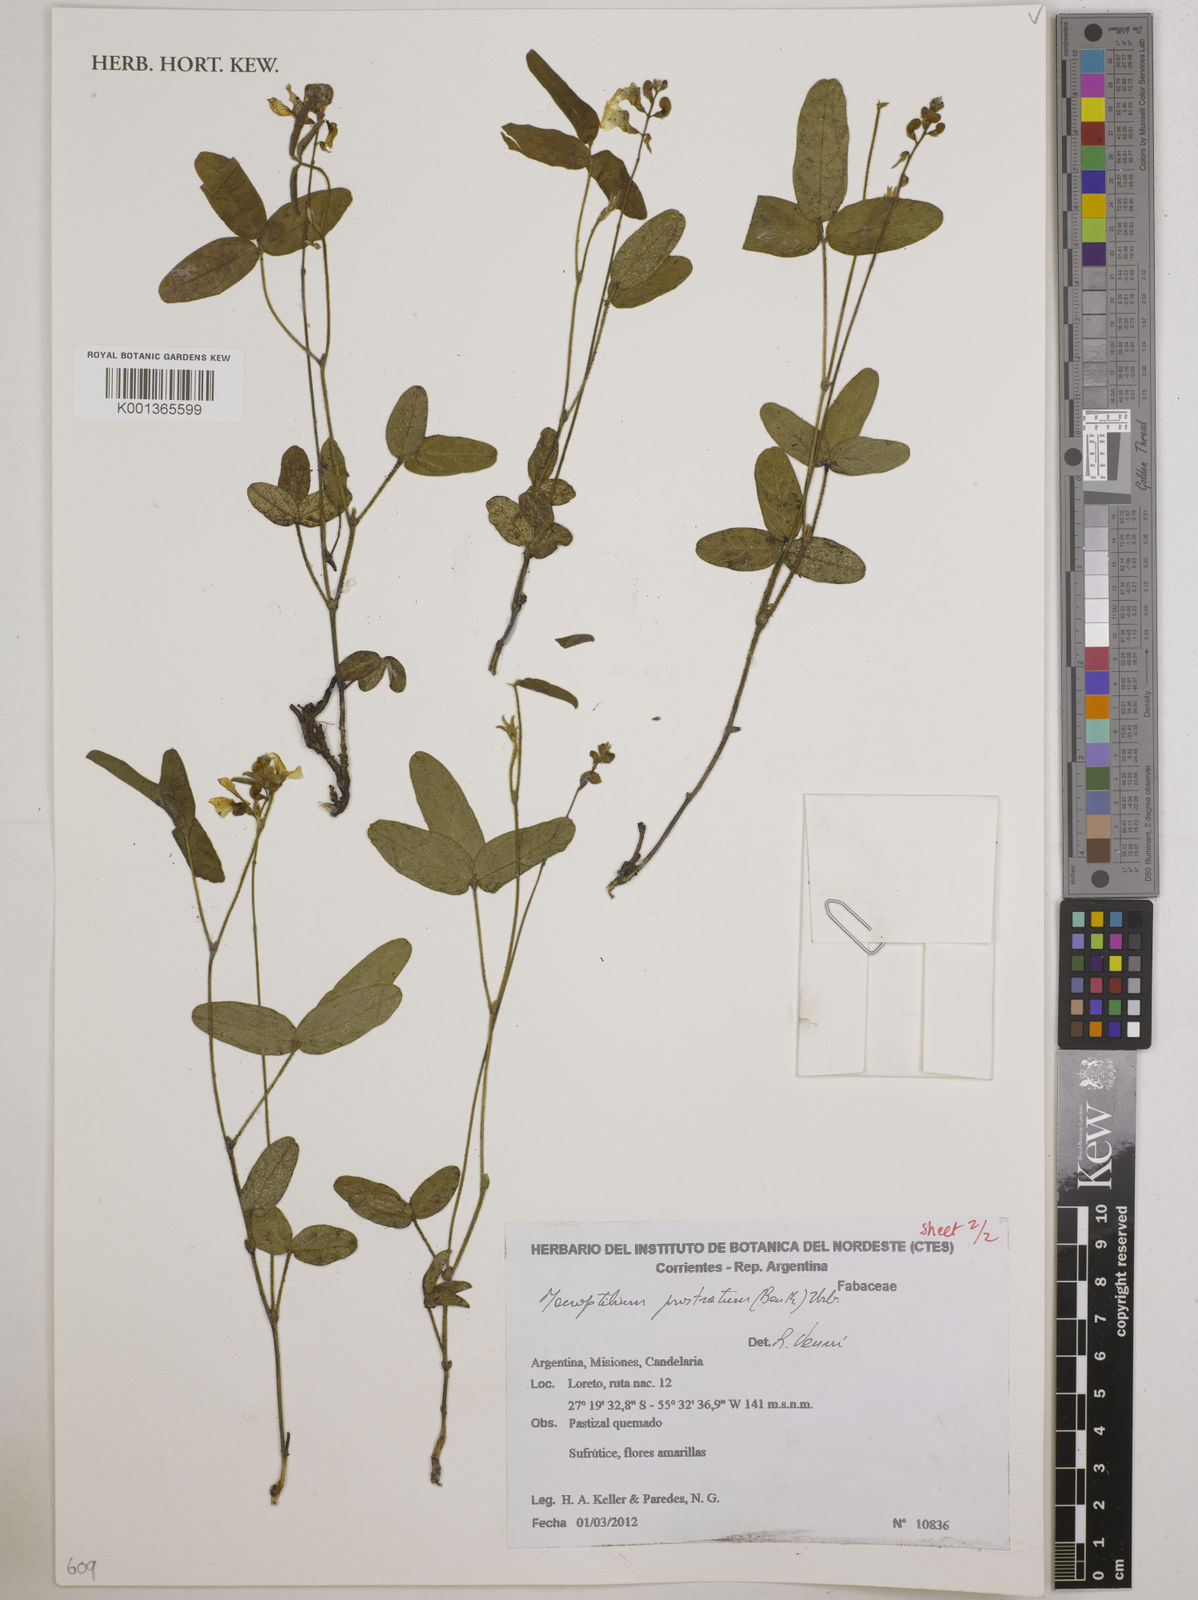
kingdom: Plantae
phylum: Tracheophyta
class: Magnoliopsida
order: Fabales
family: Fabaceae
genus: Macroptilium
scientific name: Macroptilium prostratum
